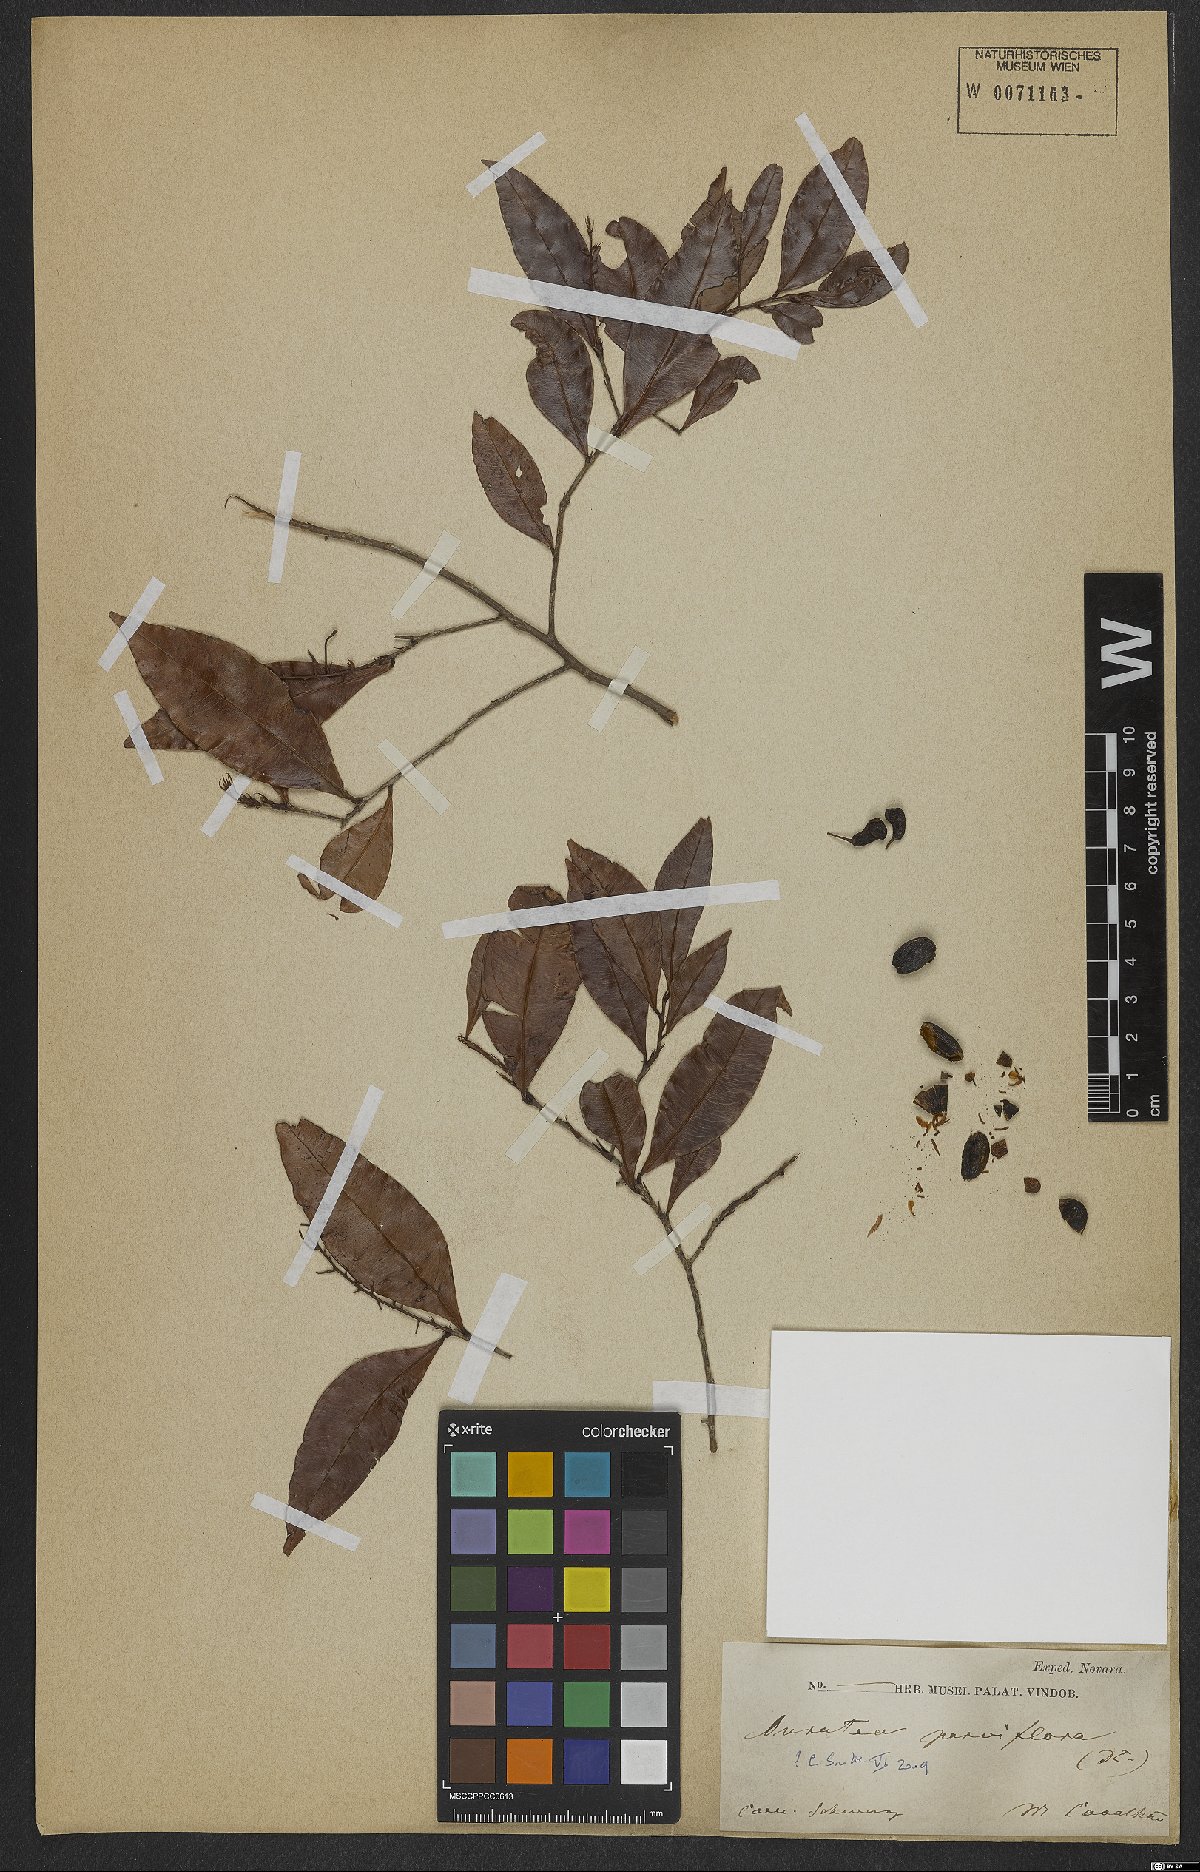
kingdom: Plantae
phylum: Tracheophyta
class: Magnoliopsida
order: Malpighiales
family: Ochnaceae
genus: Ouratea
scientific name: Ouratea parviflora
